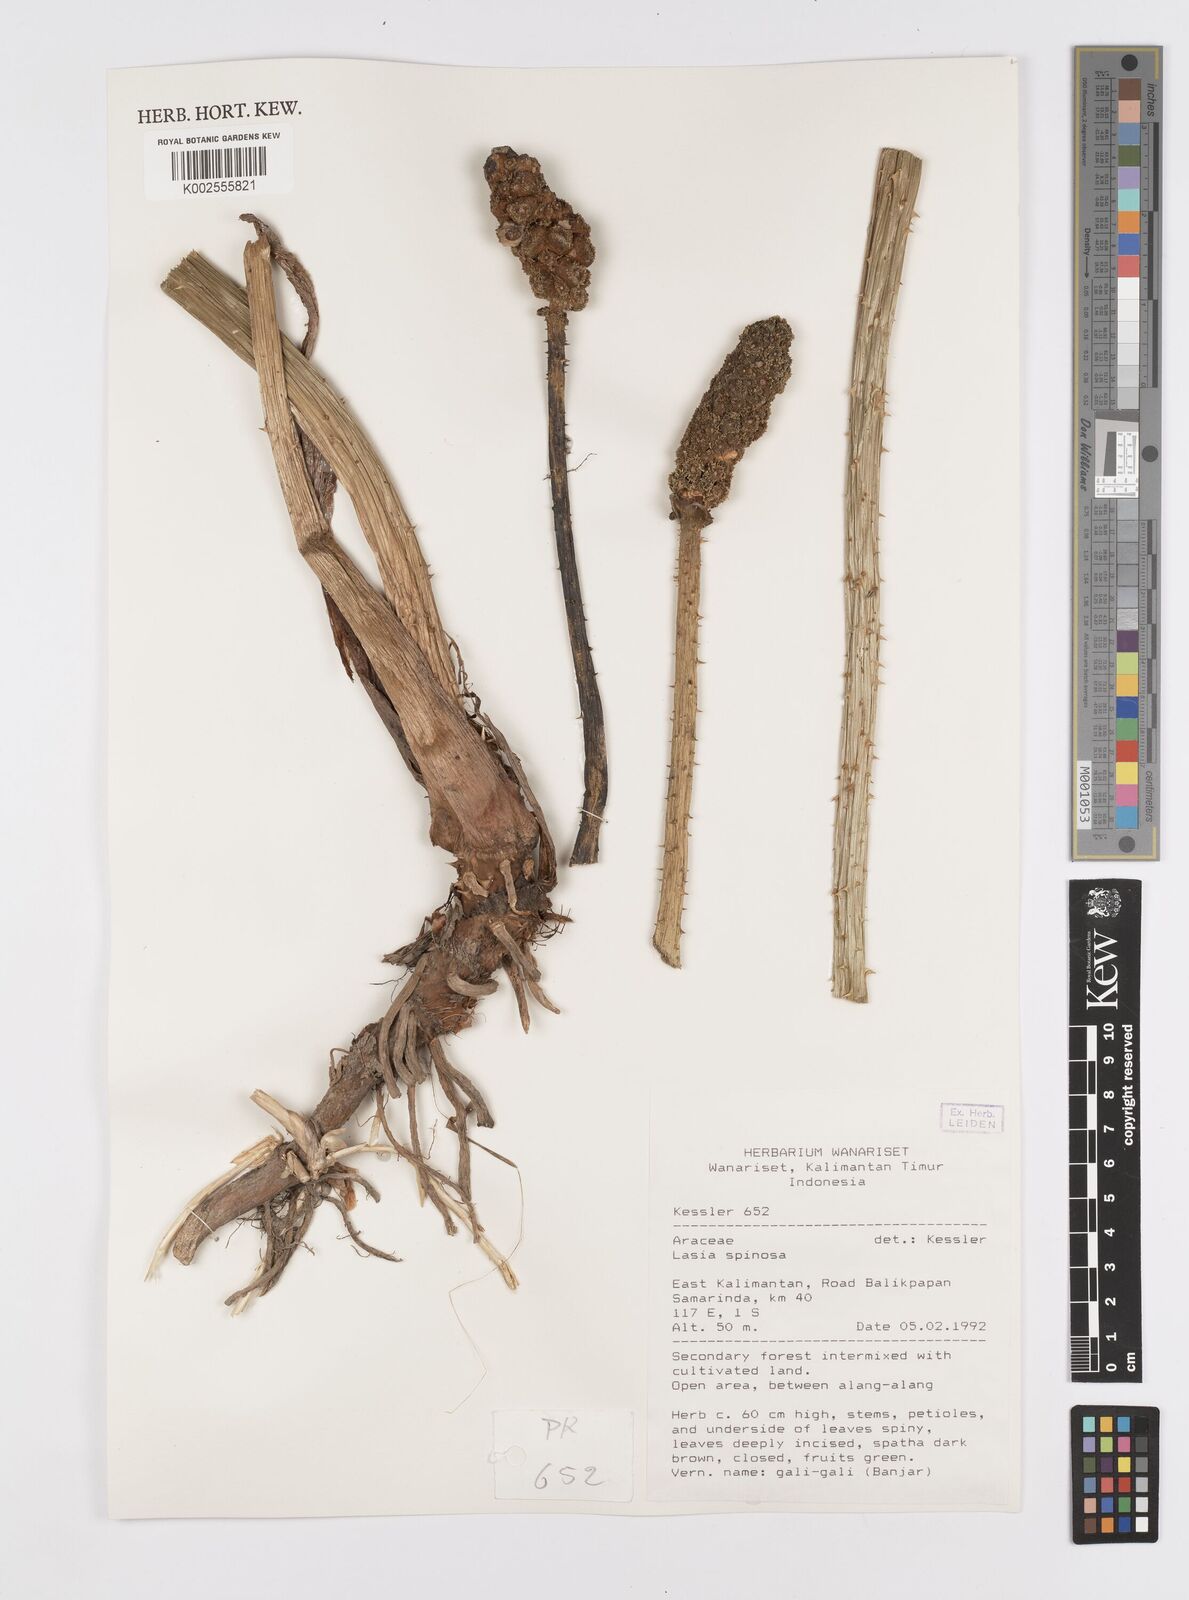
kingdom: Plantae
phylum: Tracheophyta
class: Liliopsida
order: Alismatales
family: Araceae
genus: Lasia
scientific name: Lasia spinosa
